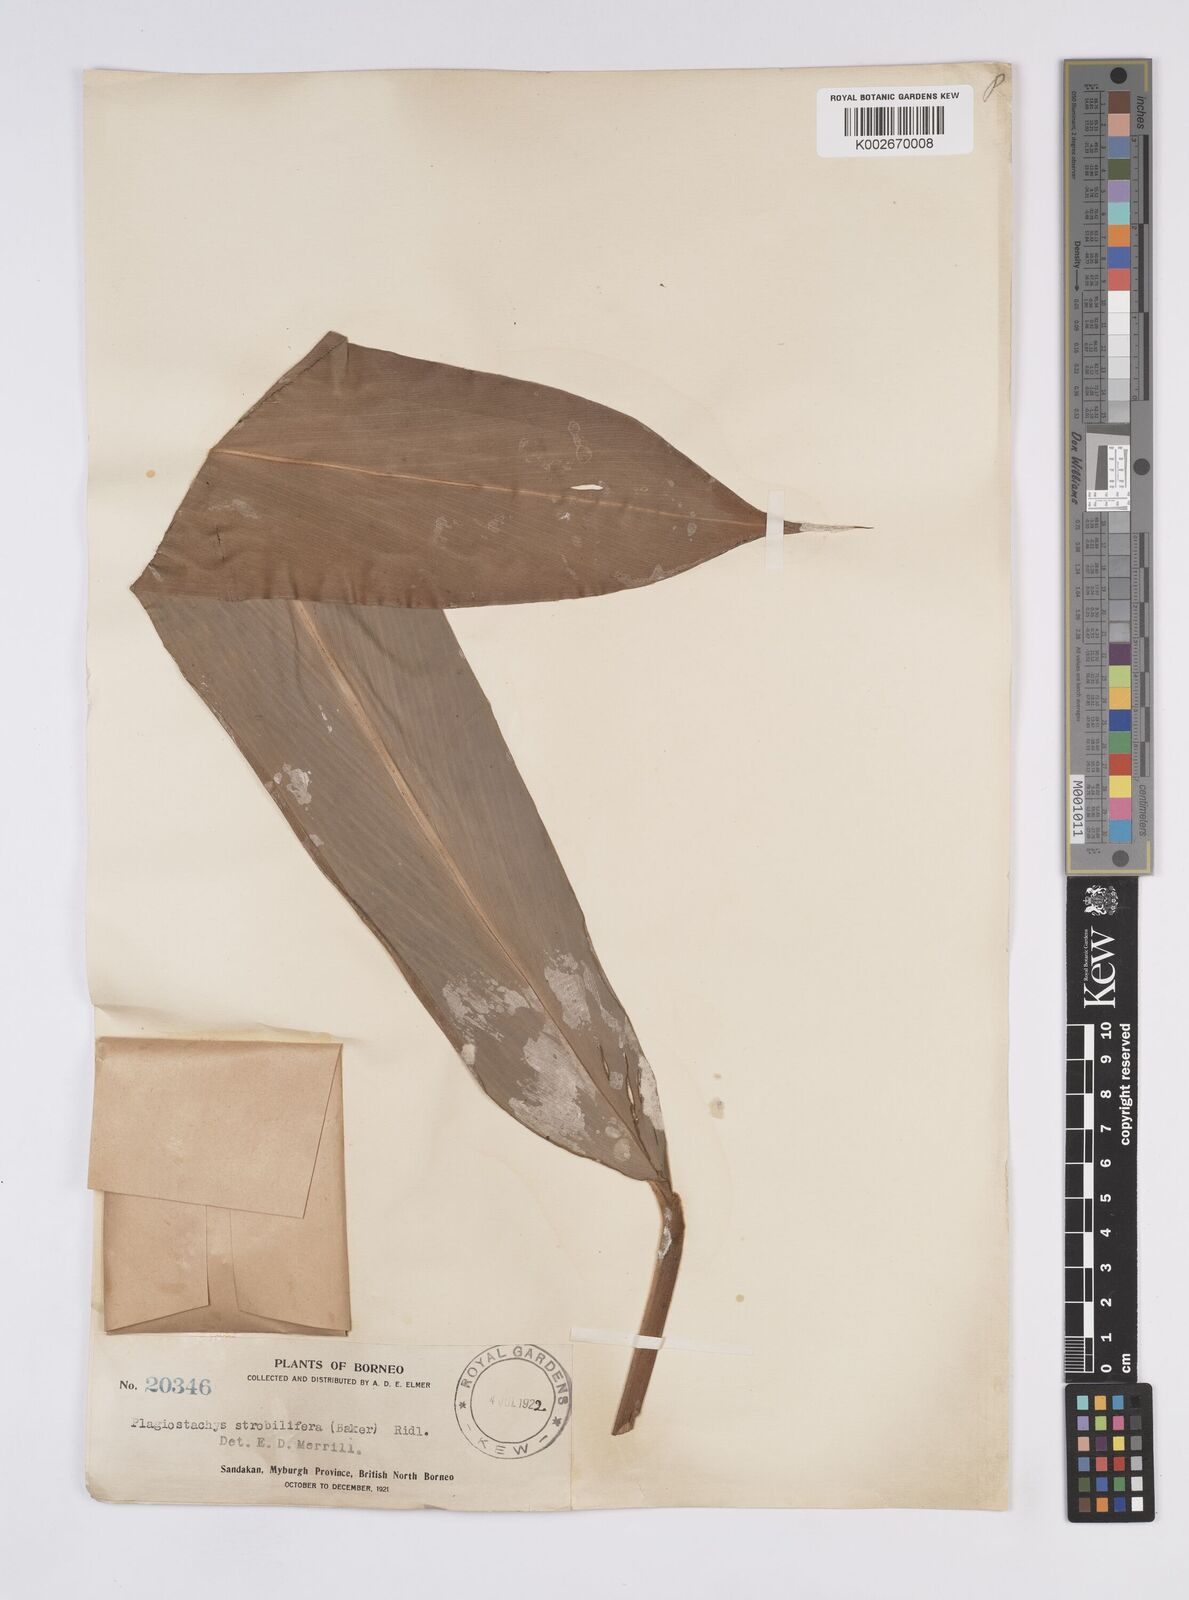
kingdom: Plantae
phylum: Tracheophyta
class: Liliopsida
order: Zingiberales
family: Zingiberaceae
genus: Plagiostachys
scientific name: Plagiostachys strobilifera
